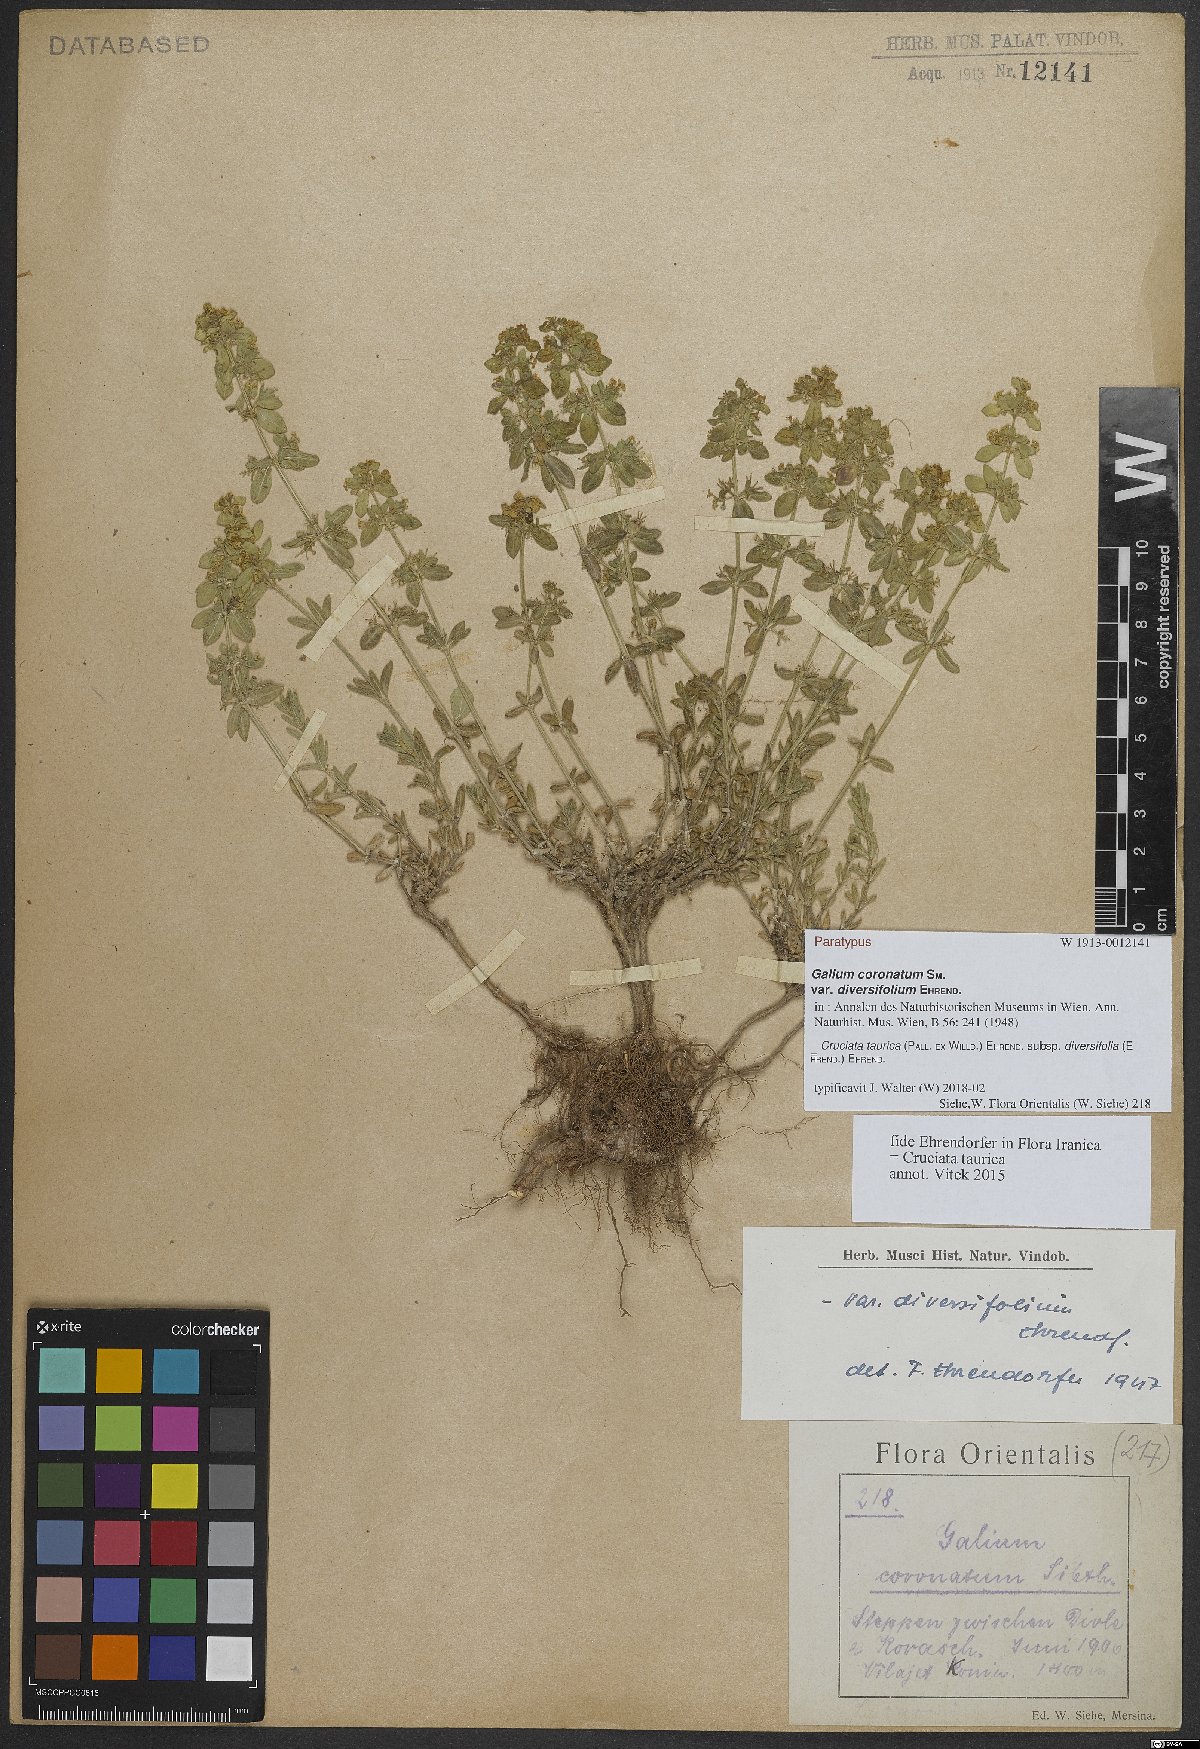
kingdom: Plantae
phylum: Tracheophyta
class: Magnoliopsida
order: Gentianales
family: Rubiaceae
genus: Cruciata
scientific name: Cruciata taurica
